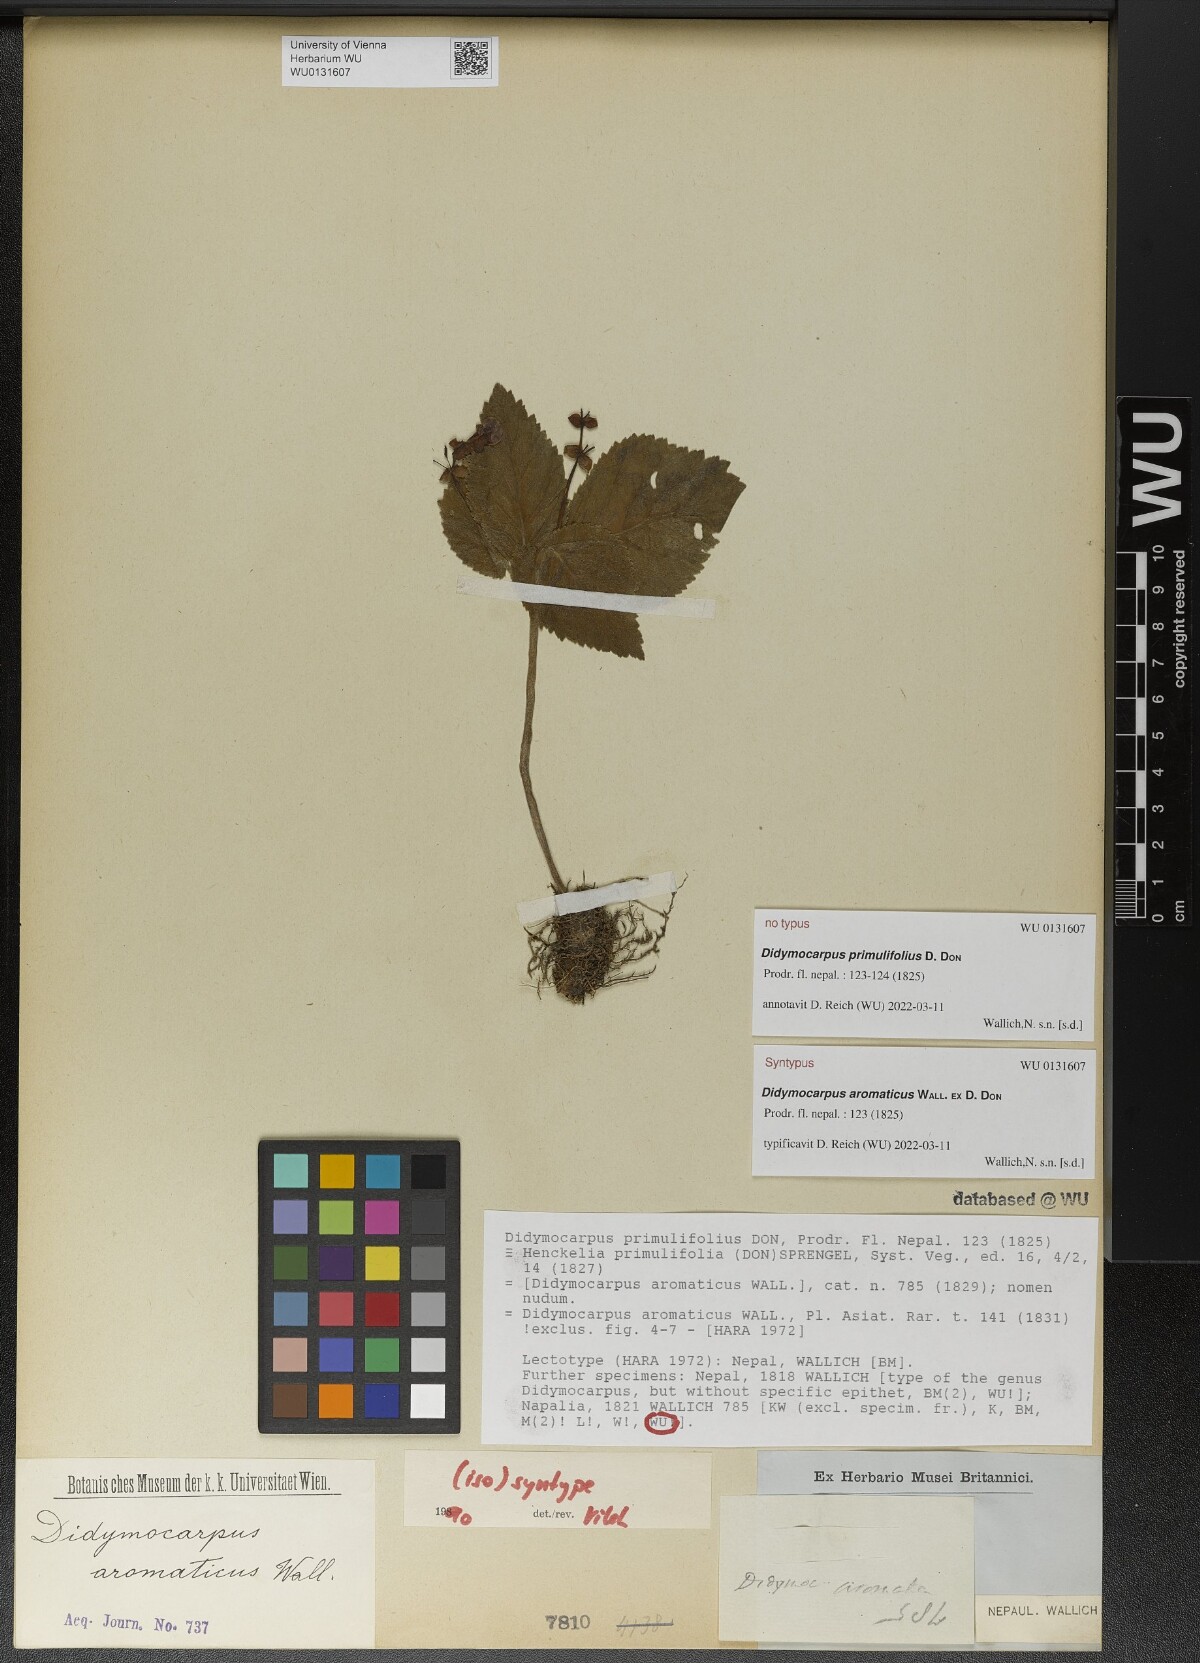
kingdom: Plantae
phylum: Tracheophyta
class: Magnoliopsida
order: Lamiales
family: Gesneriaceae
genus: Didymocarpus
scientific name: Didymocarpus aromaticus
